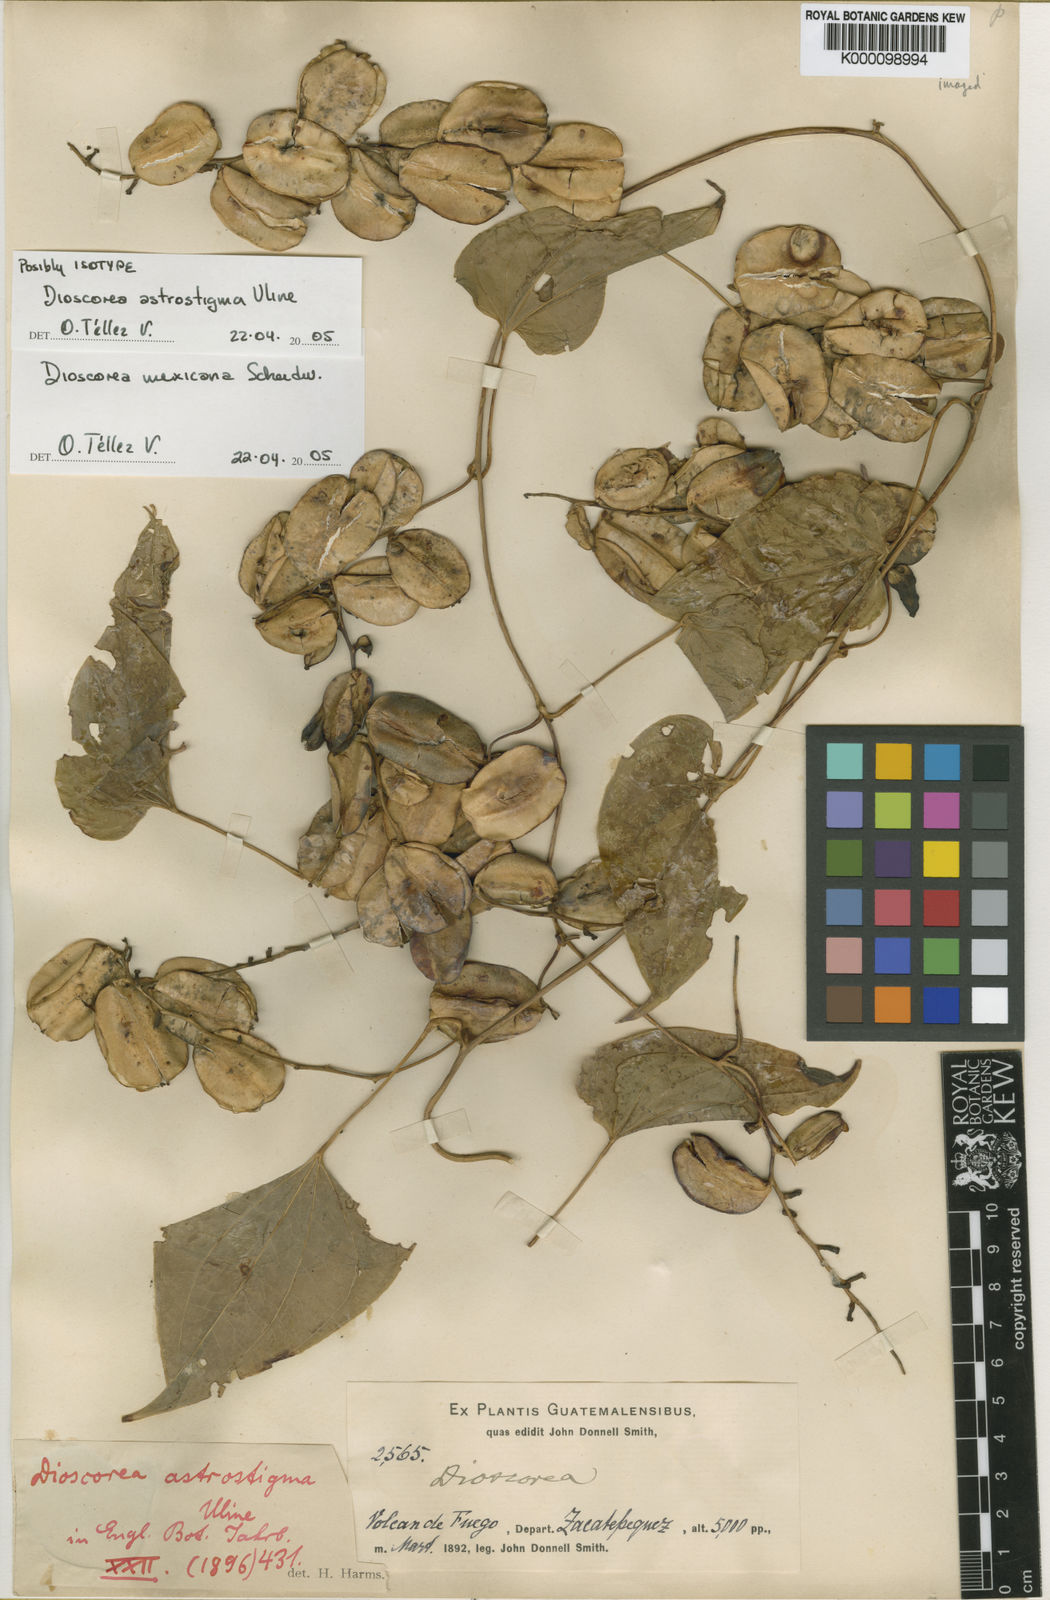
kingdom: Plantae
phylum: Tracheophyta
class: Liliopsida
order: Dioscoreales
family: Dioscoreaceae
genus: Dioscorea
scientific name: Dioscorea mexicana
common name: Mexican yam
